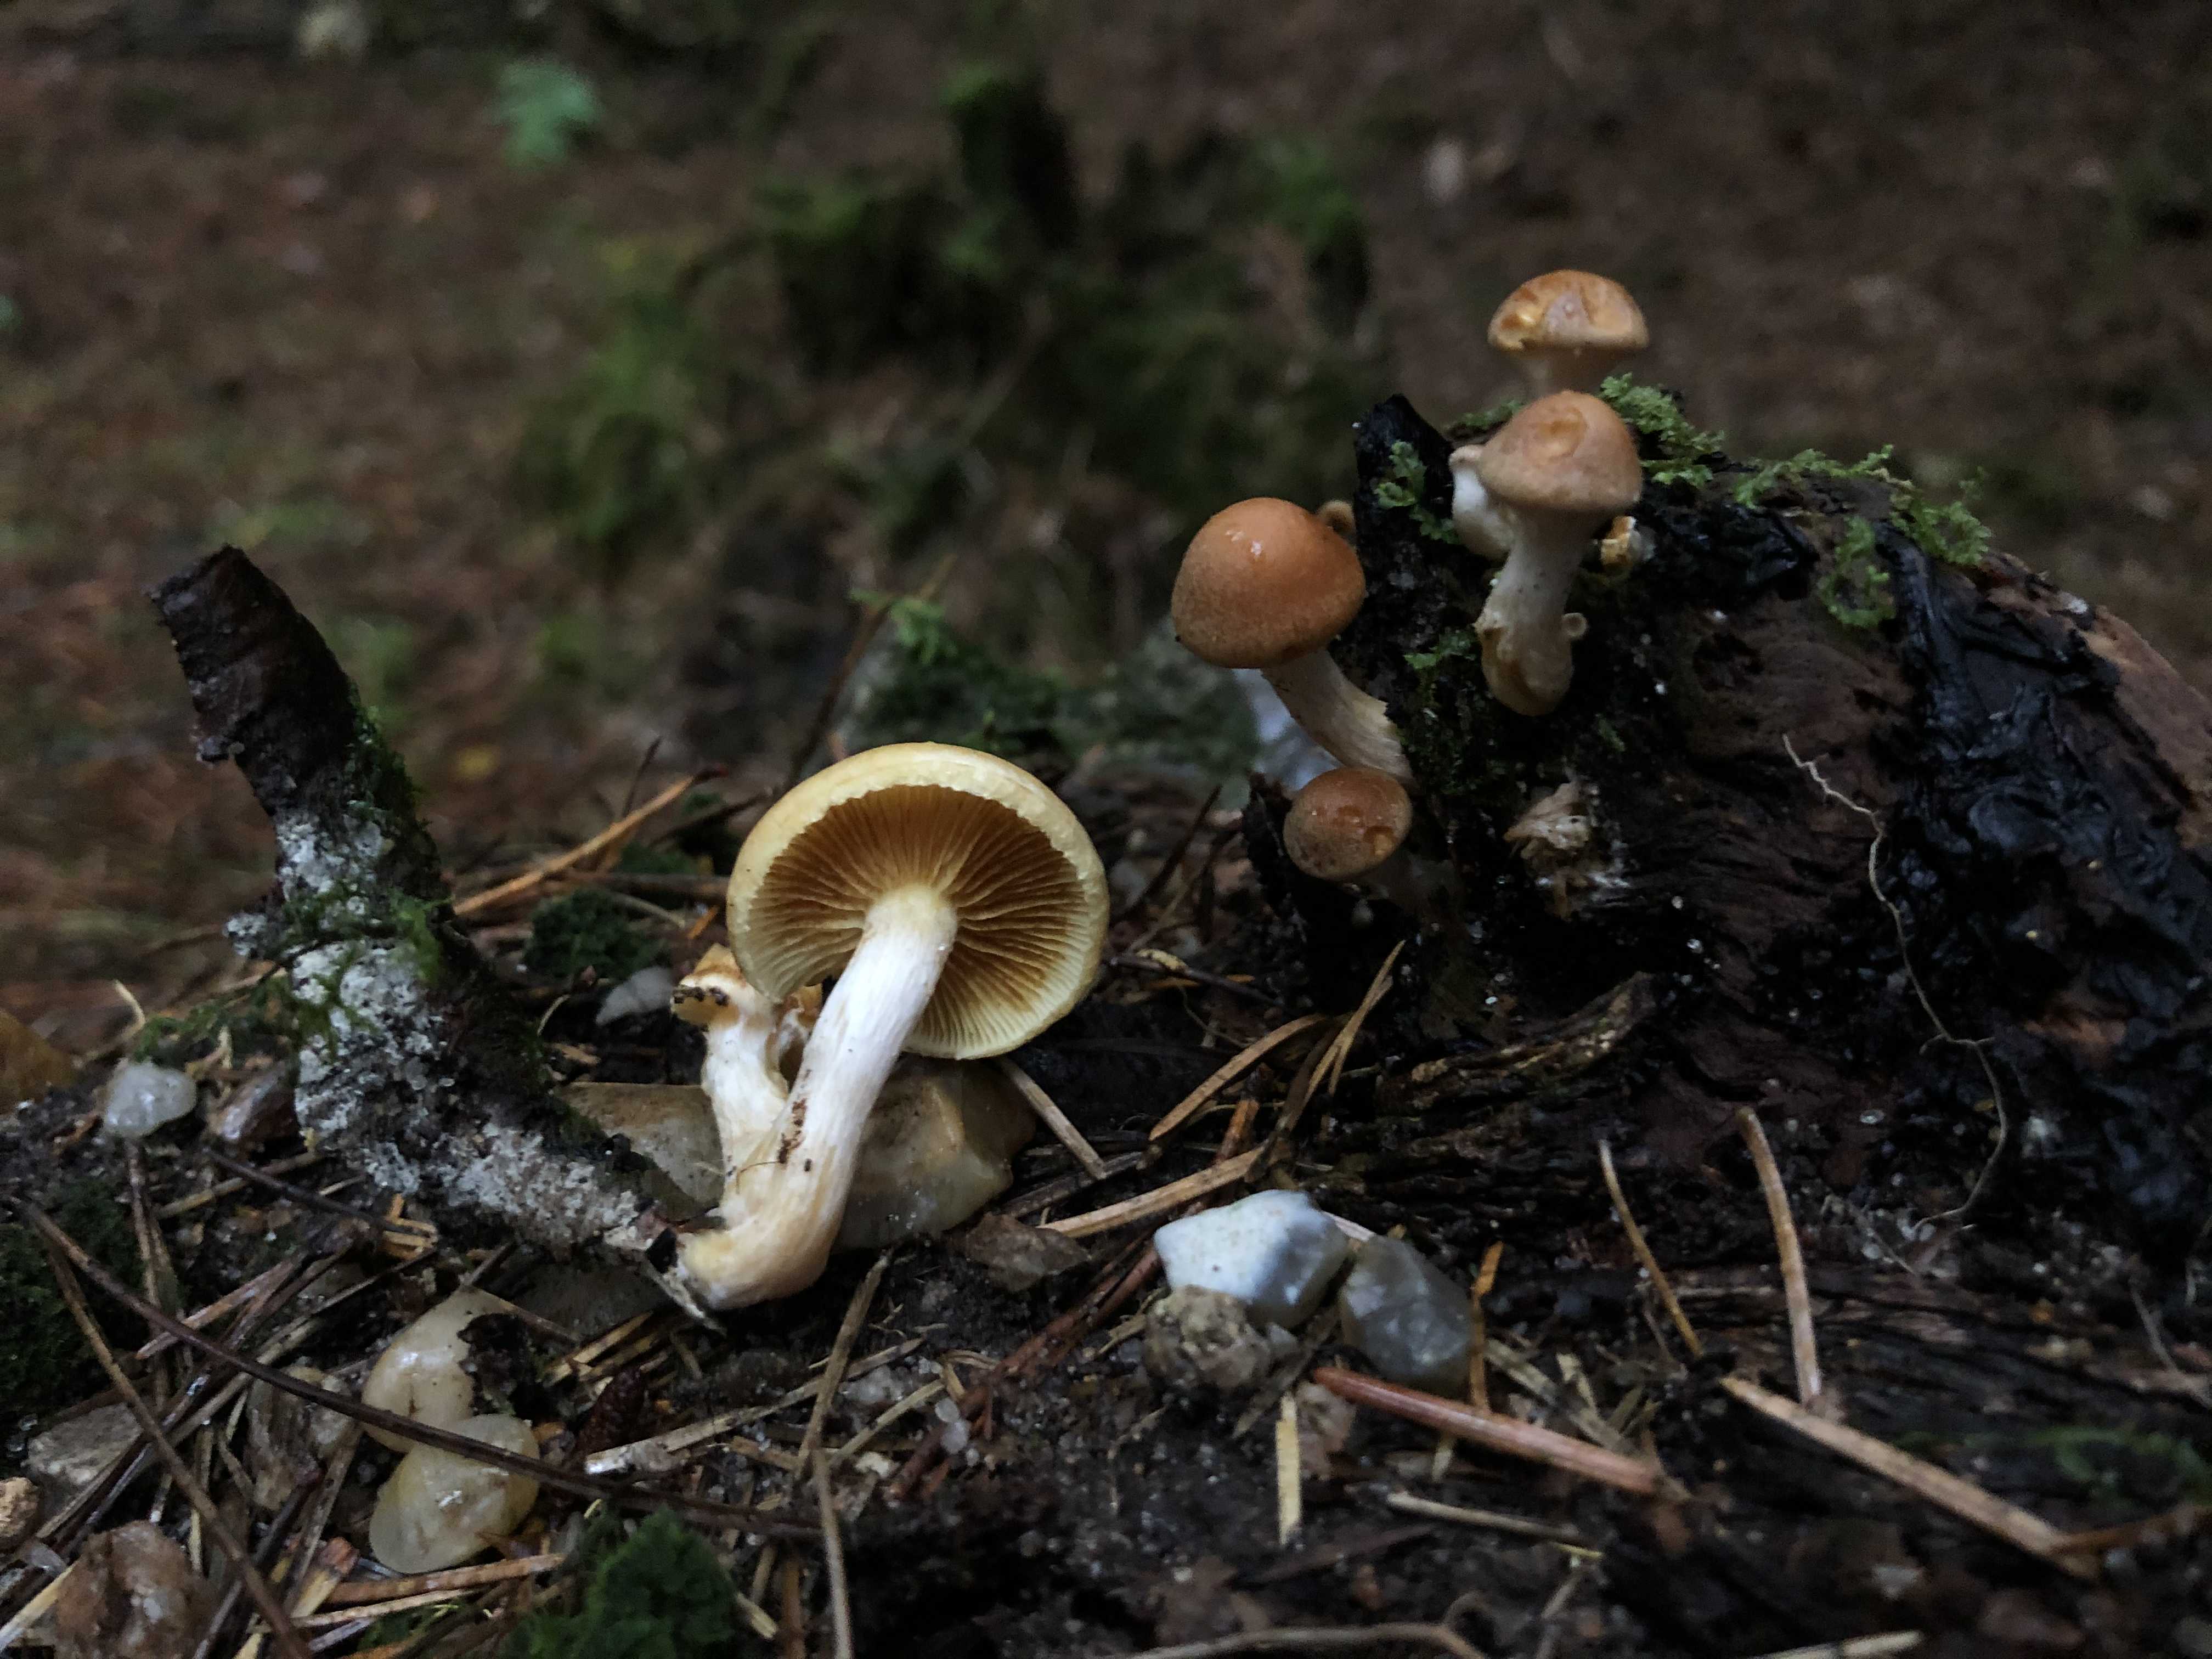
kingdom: Fungi
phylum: Basidiomycota
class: Agaricomycetes
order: Agaricales
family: Hymenogastraceae
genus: Gymnopilus
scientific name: Gymnopilus penetrans
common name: plettet flammehat
